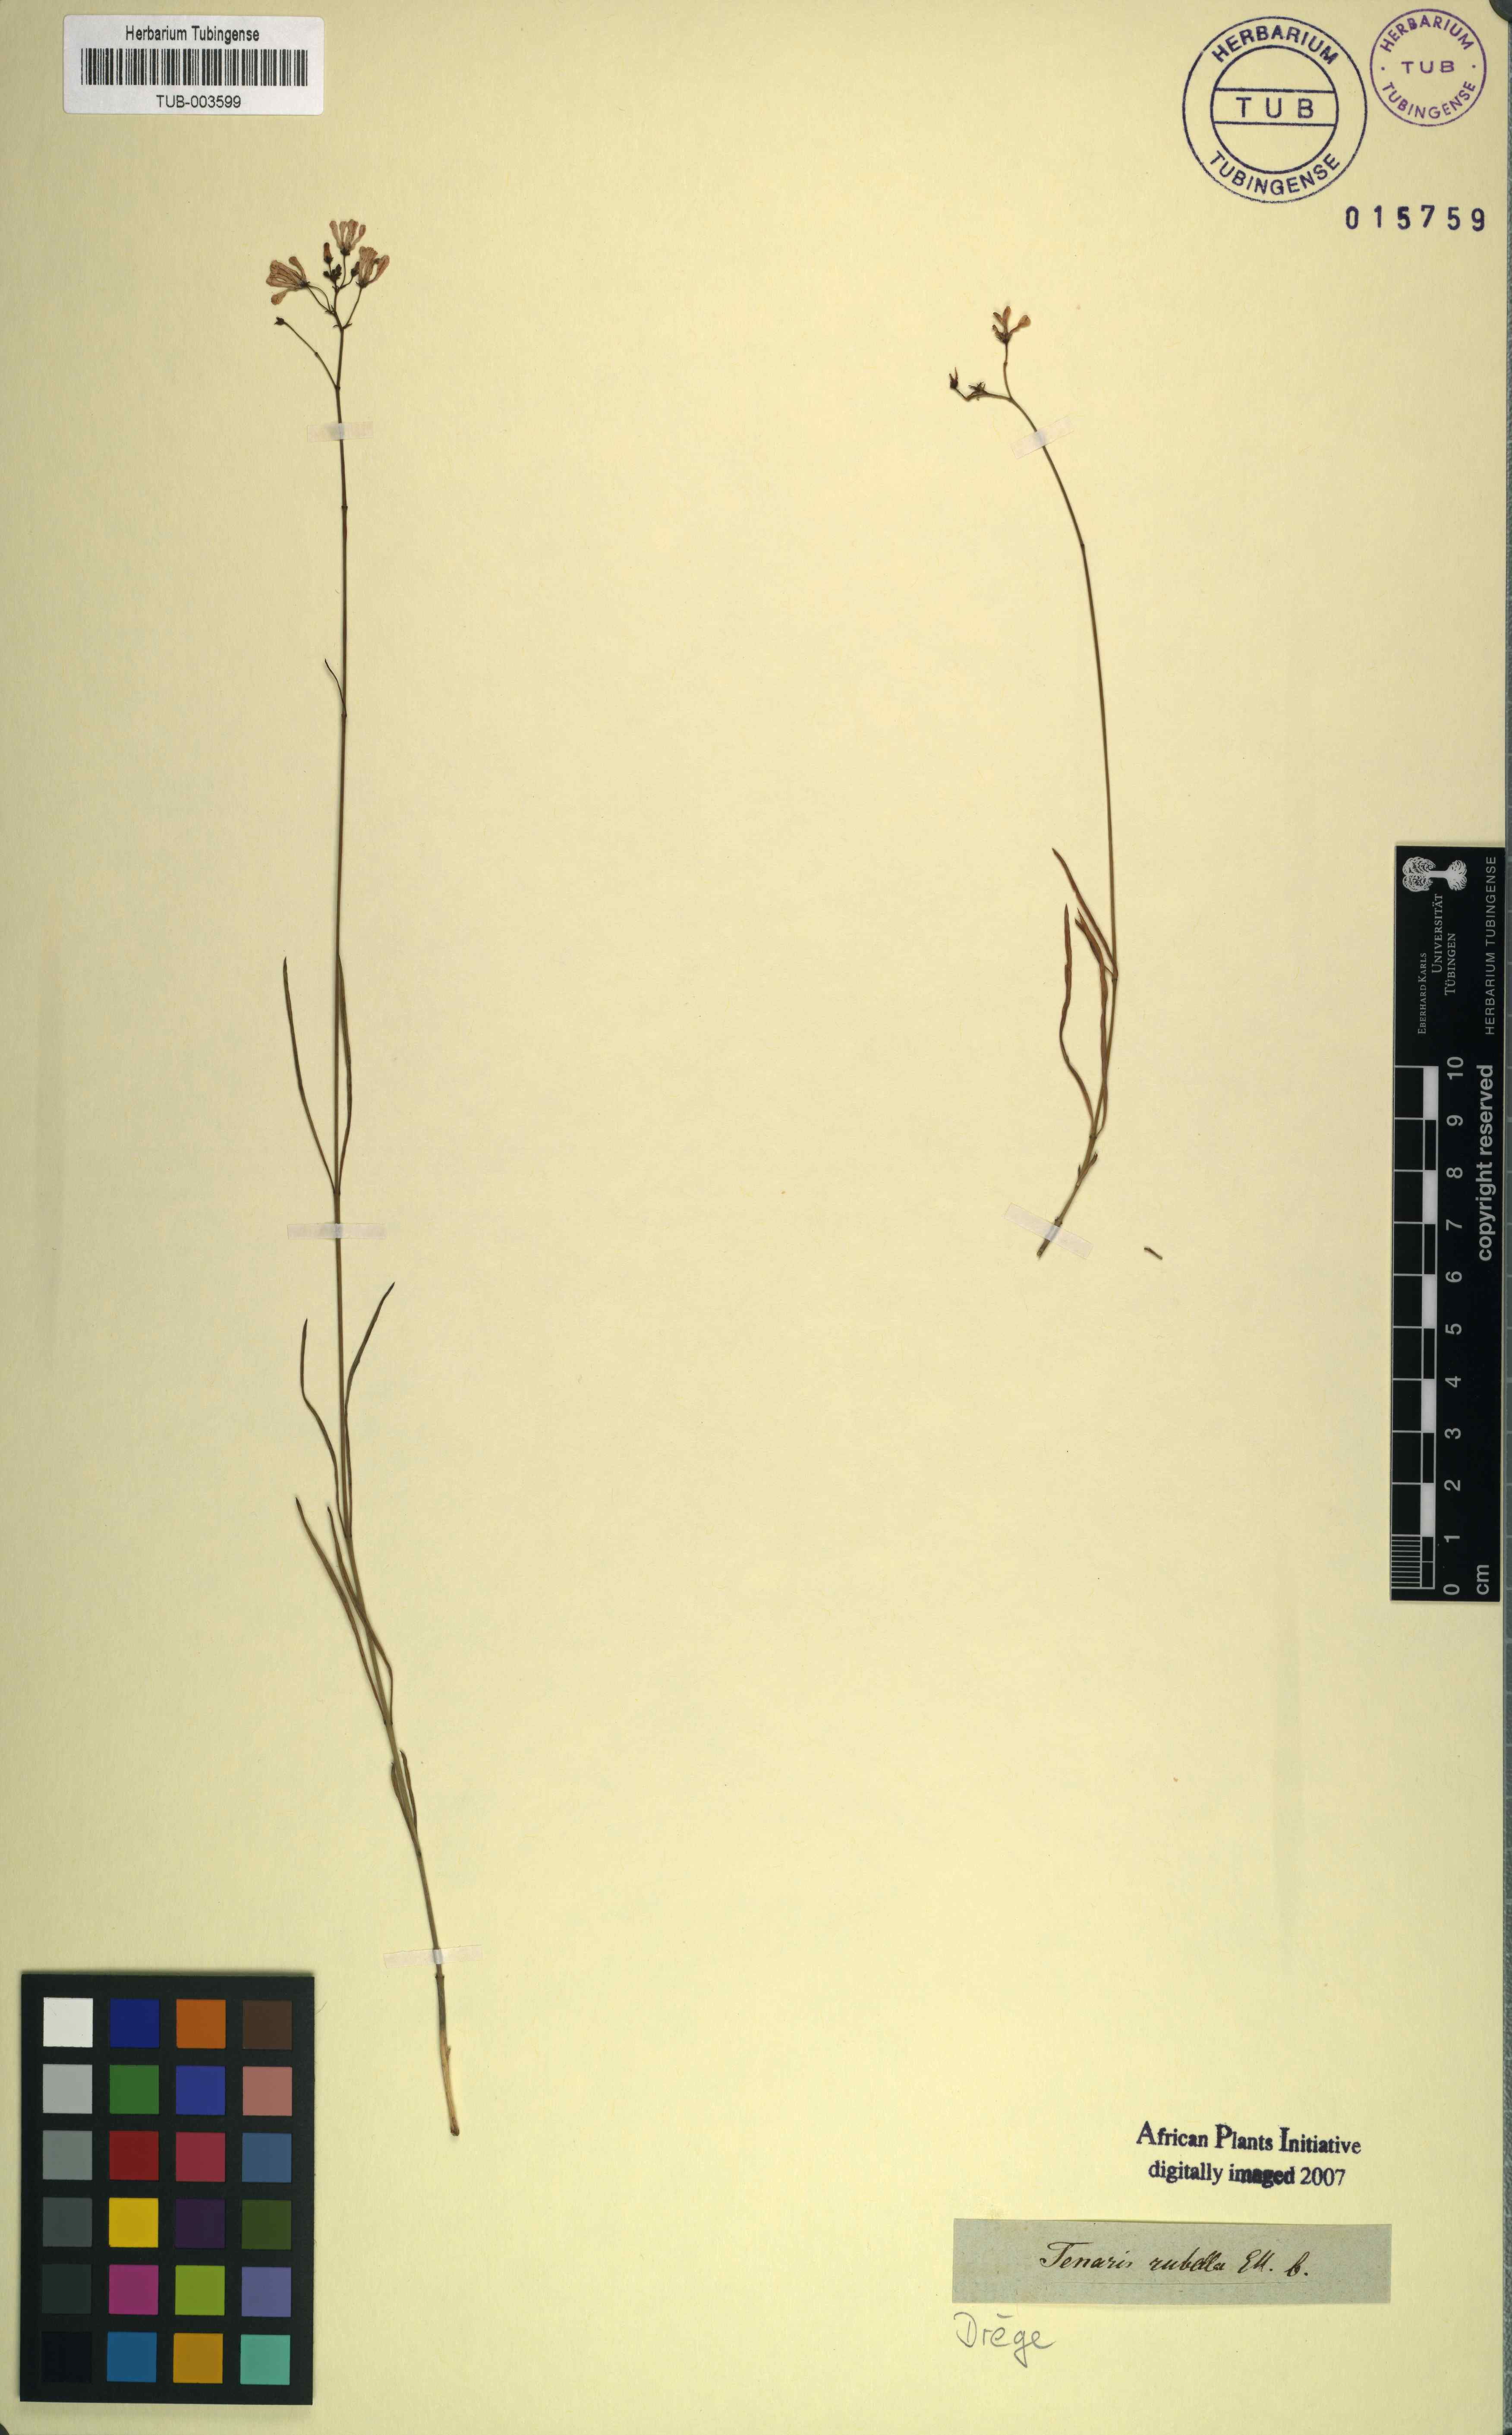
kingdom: Plantae
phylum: Tracheophyta
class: Magnoliopsida
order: Gentianales
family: Apocynaceae
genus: Ceropegia
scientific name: Ceropegia rubella
